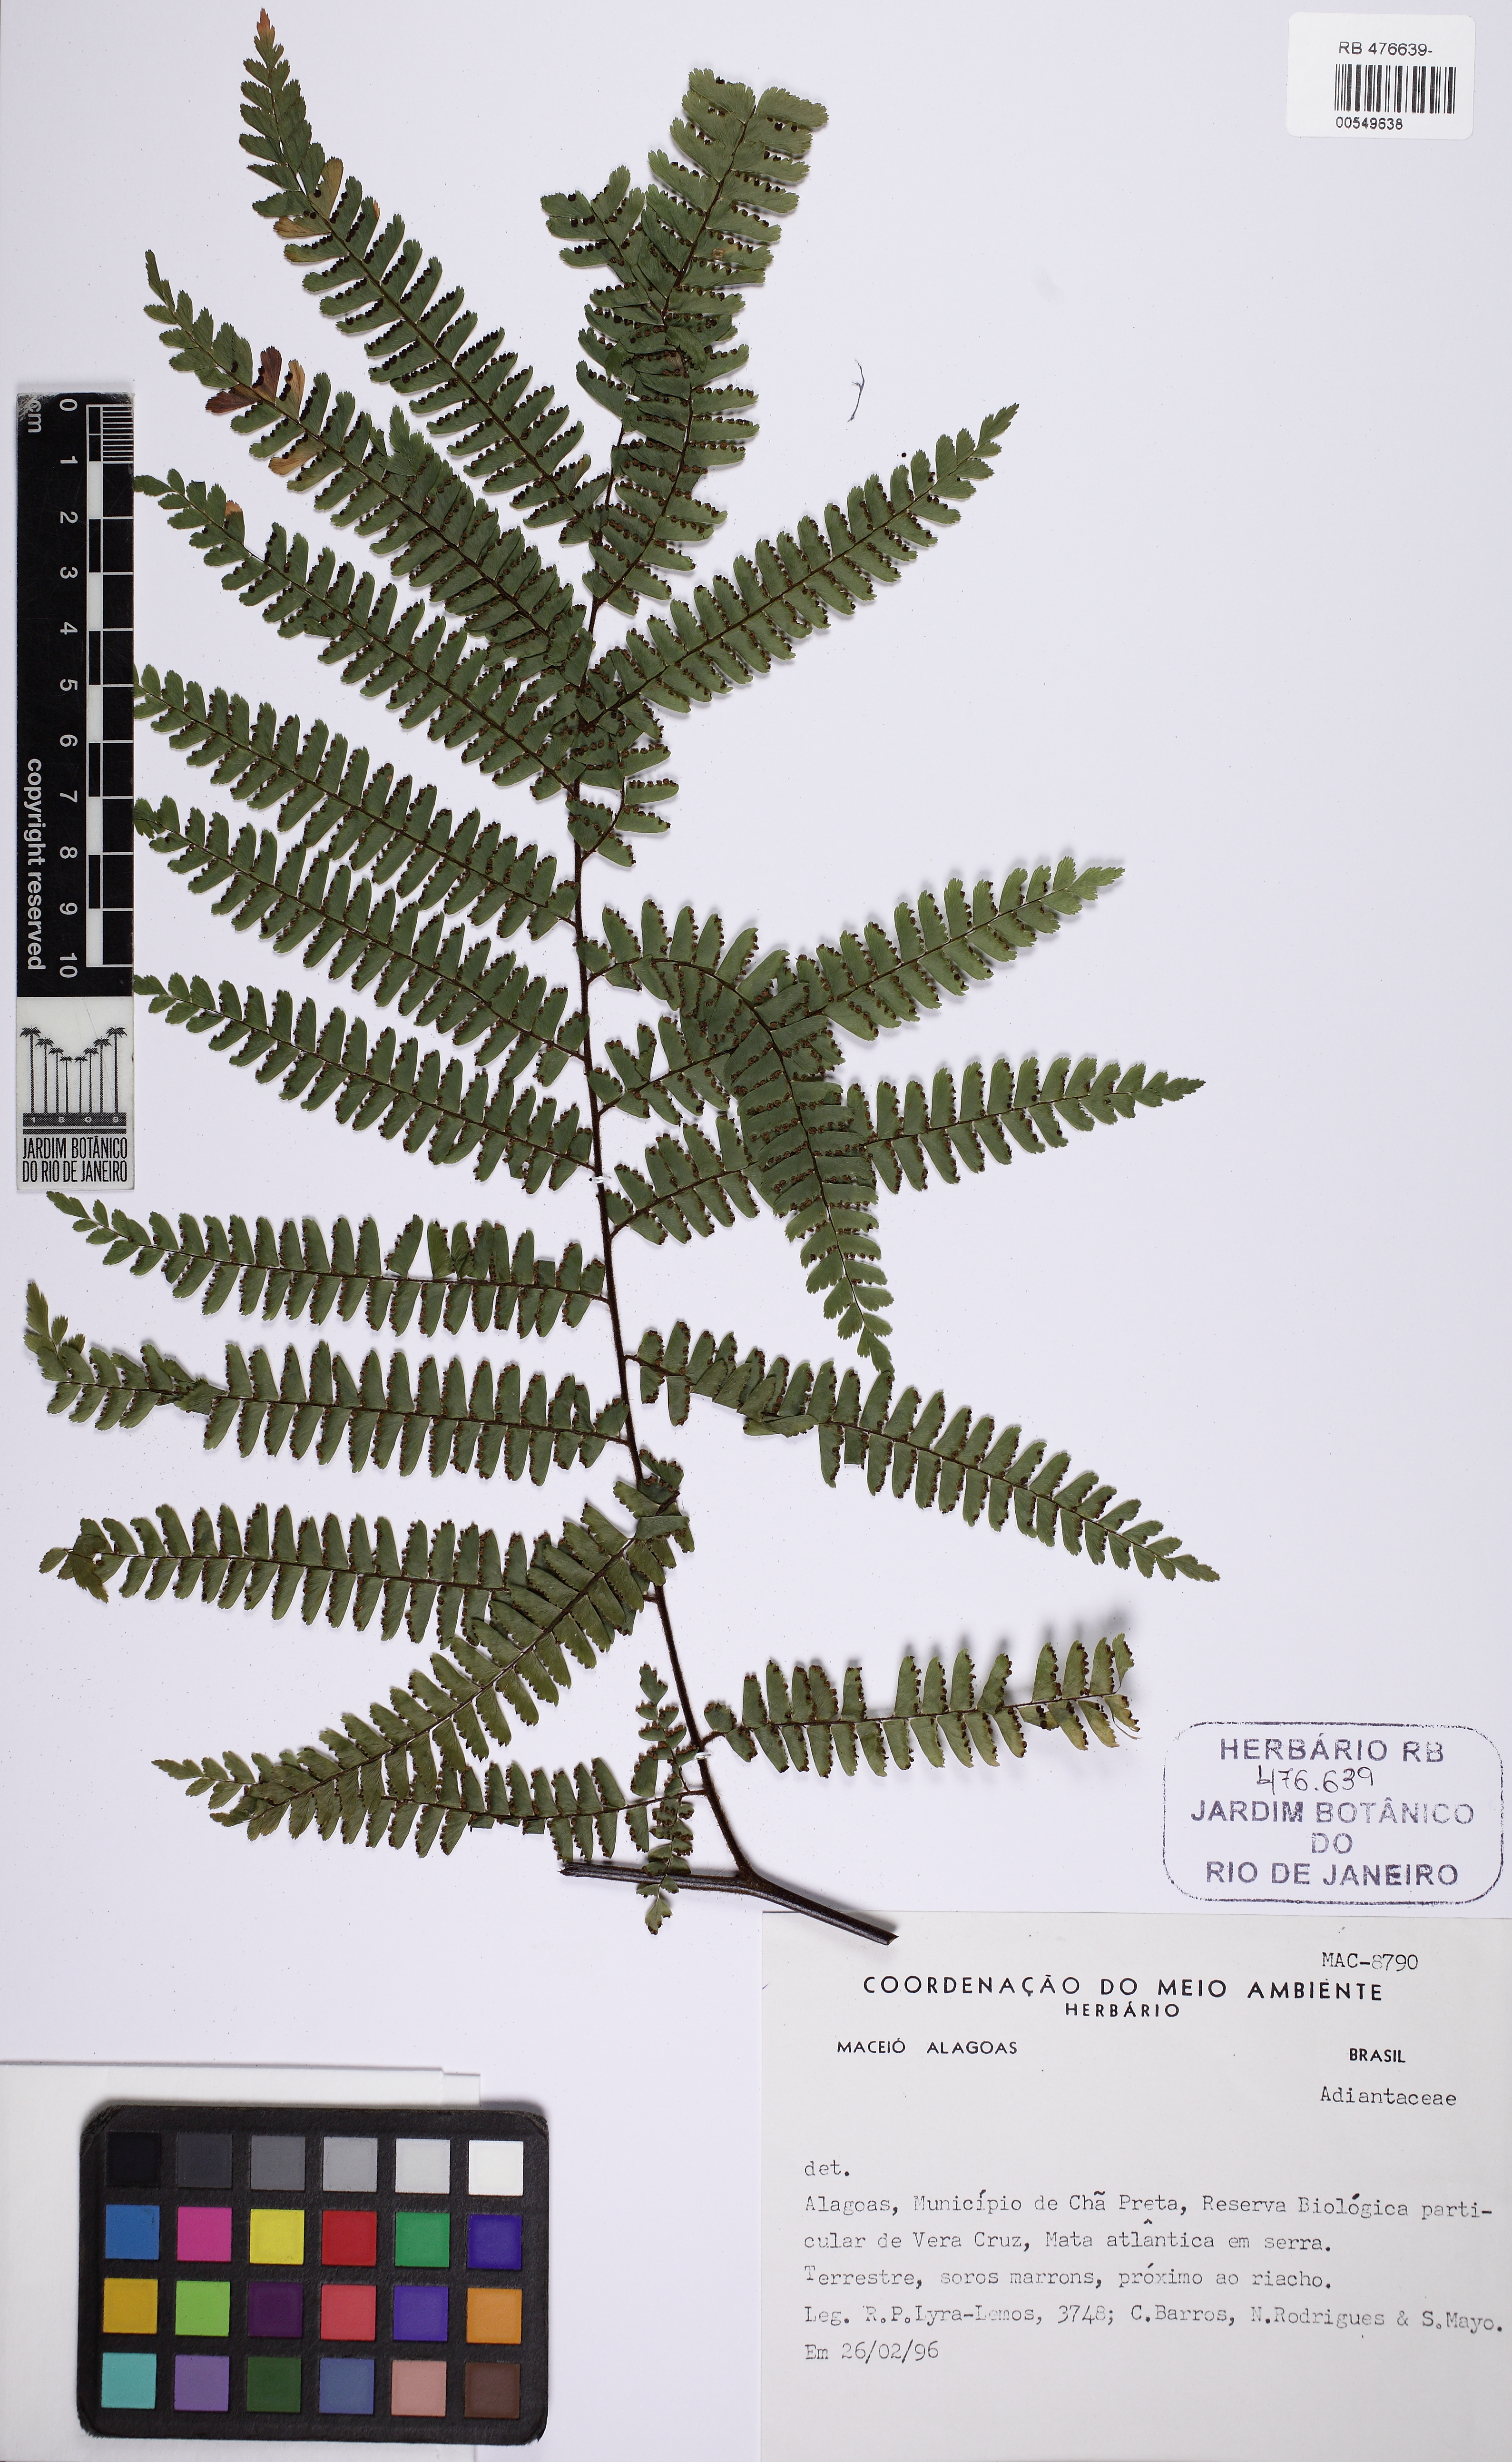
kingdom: Plantae
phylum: Tracheophyta
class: Polypodiopsida
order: Polypodiales
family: Pteridaceae
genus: Adiantum
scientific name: Adiantum pectinatum
